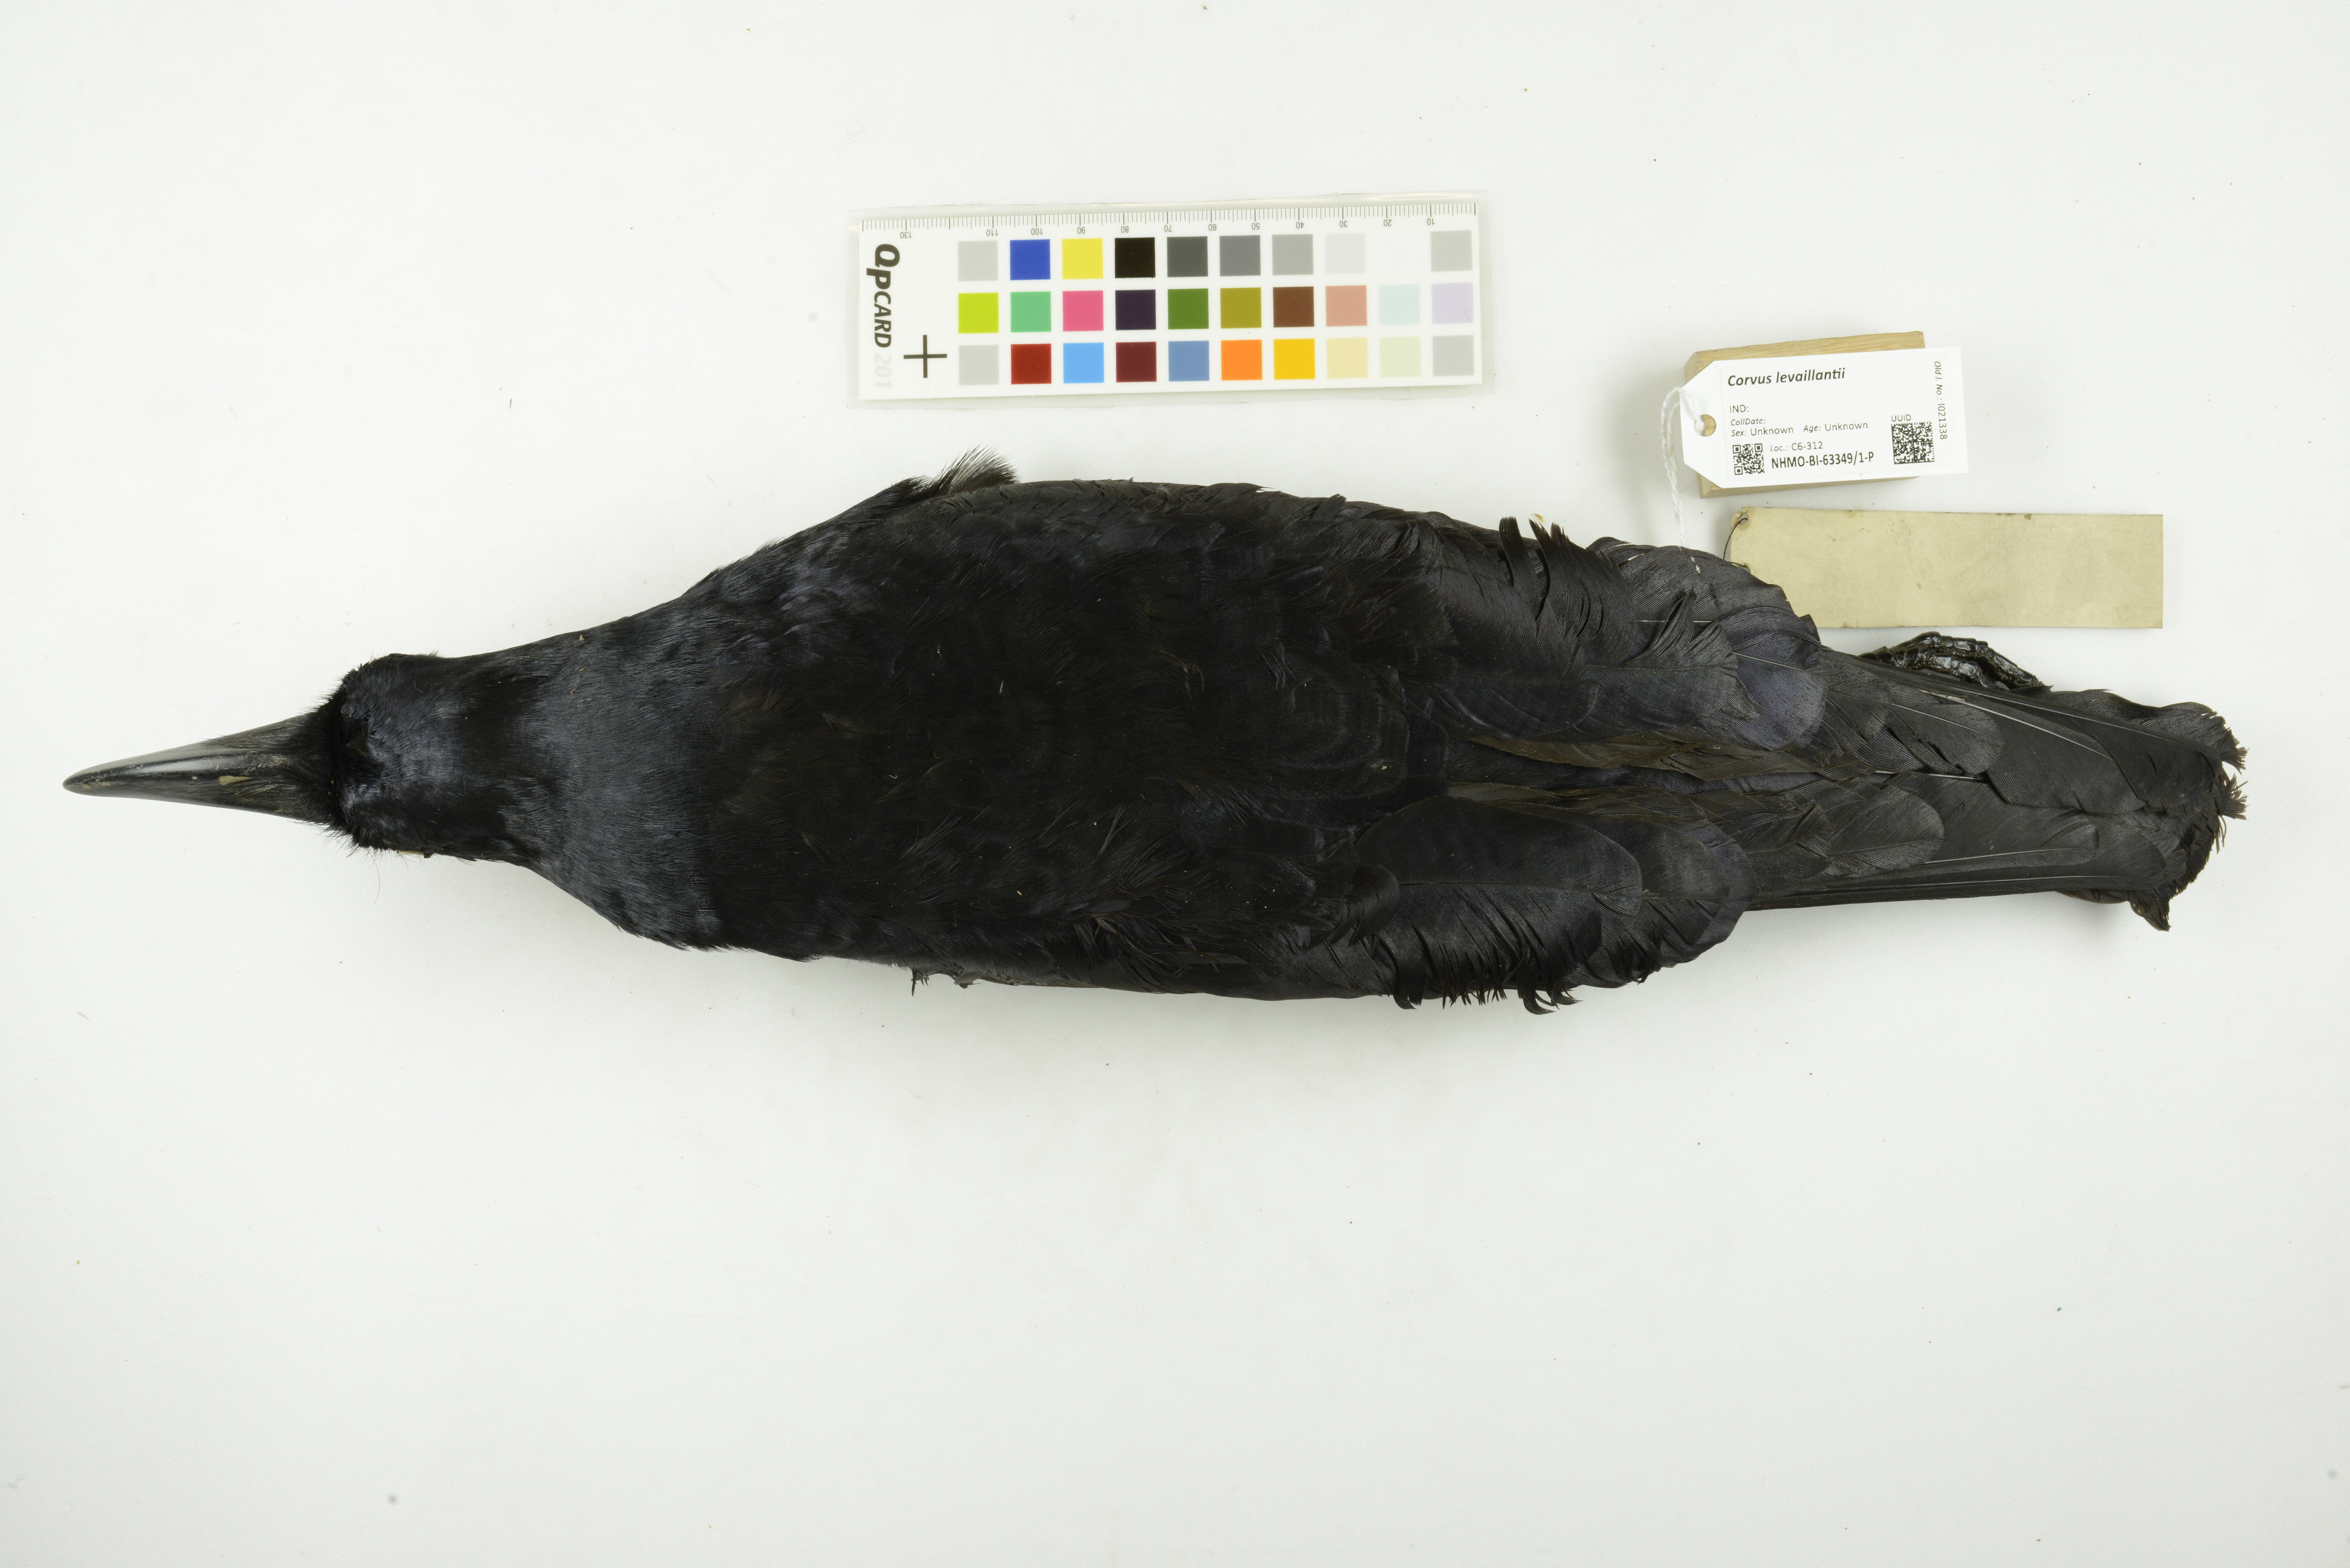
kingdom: Animalia
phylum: Chordata
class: Aves
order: Passeriformes
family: Corvidae
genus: Corvus
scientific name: Corvus levaillantii
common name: Jungle crow
